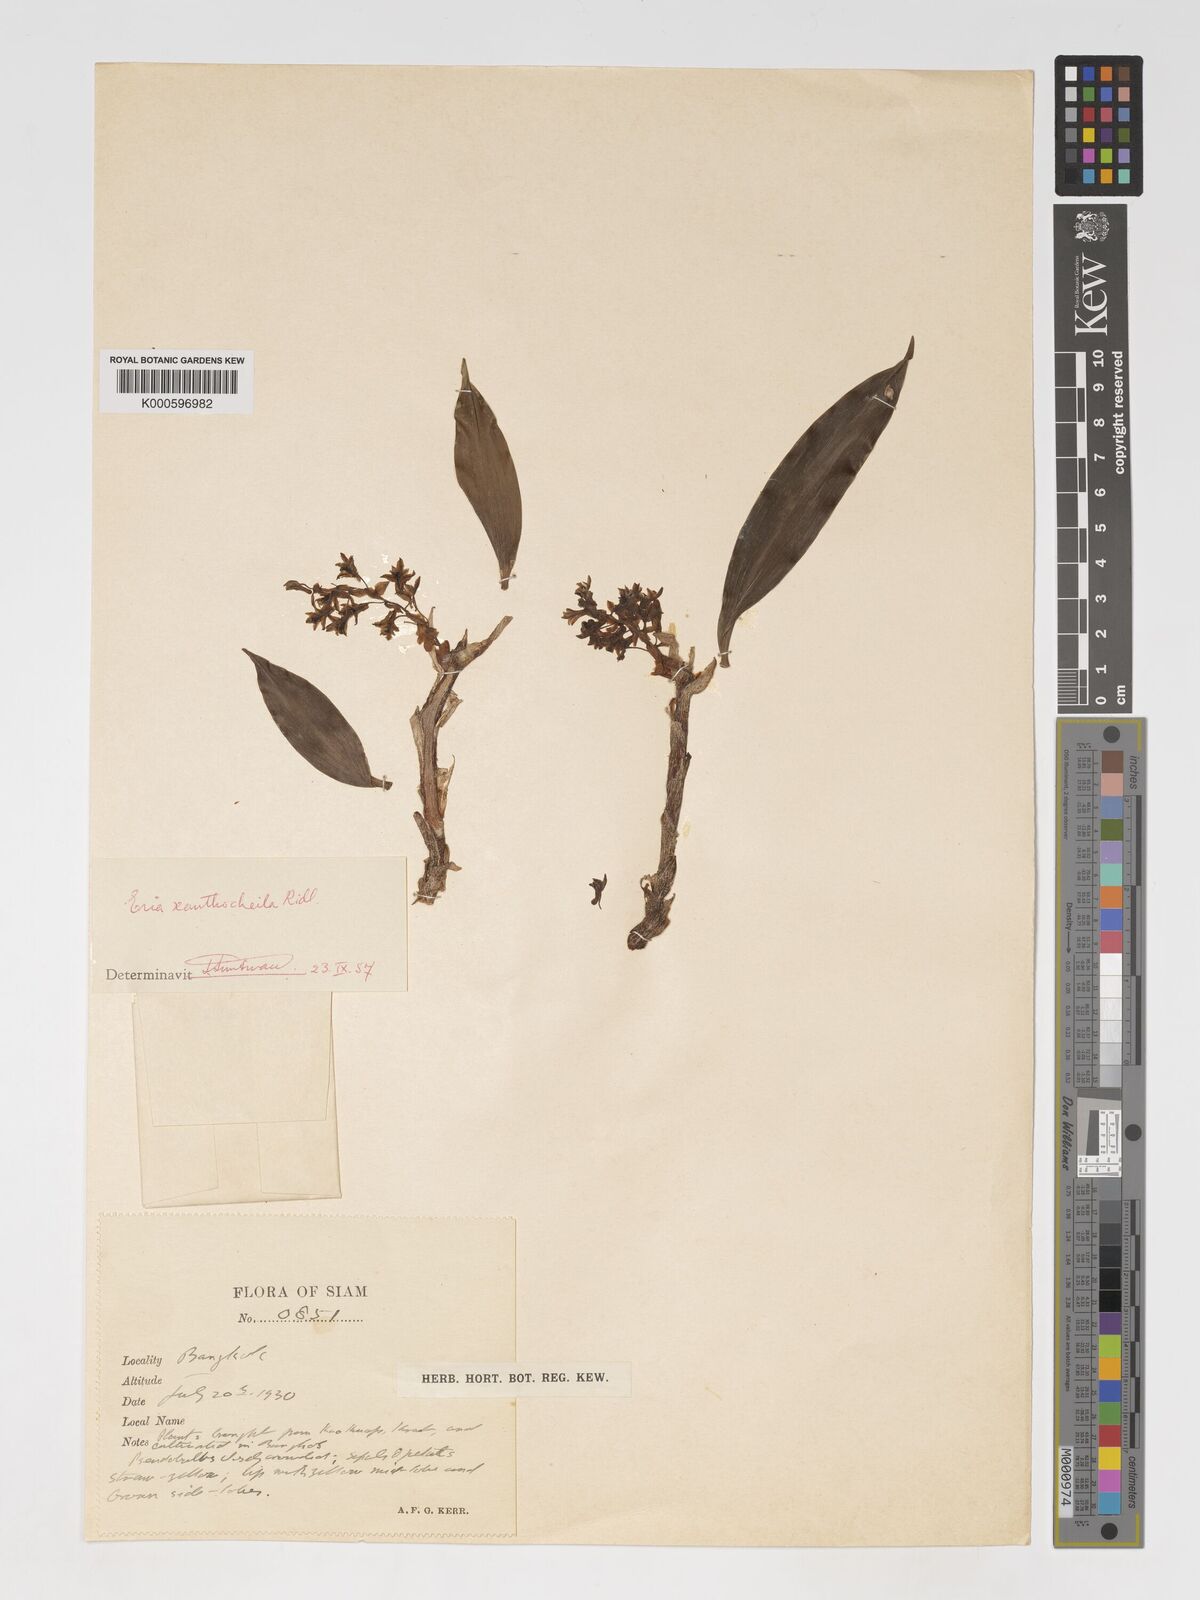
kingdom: Plantae
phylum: Tracheophyta
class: Liliopsida
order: Asparagales
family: Orchidaceae
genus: Pinalia
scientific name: Pinalia xanthocheila
